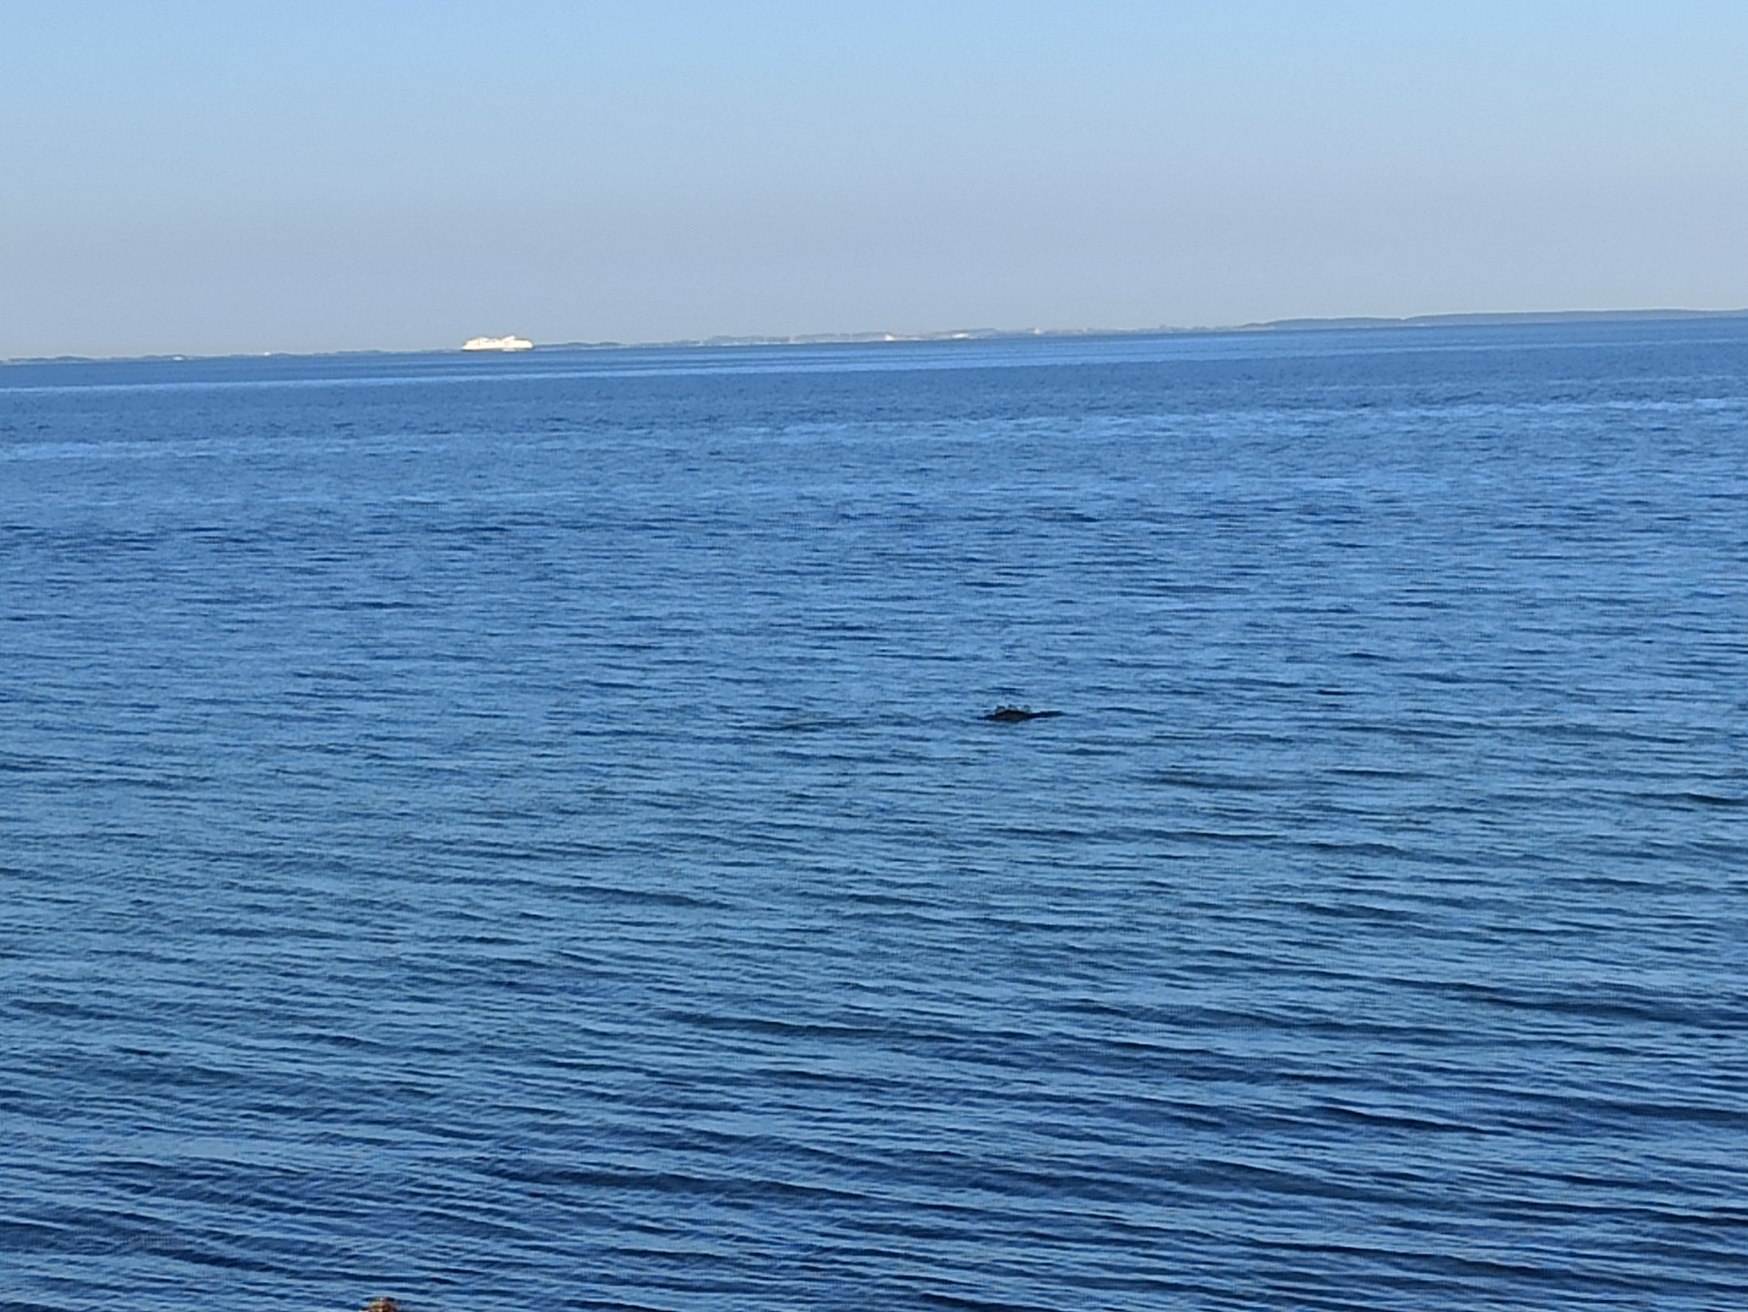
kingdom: Animalia
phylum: Chordata
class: Mammalia
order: Cetacea
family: Phocoenidae
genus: Phocoena
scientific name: Phocoena phocoena
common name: Marsvin
